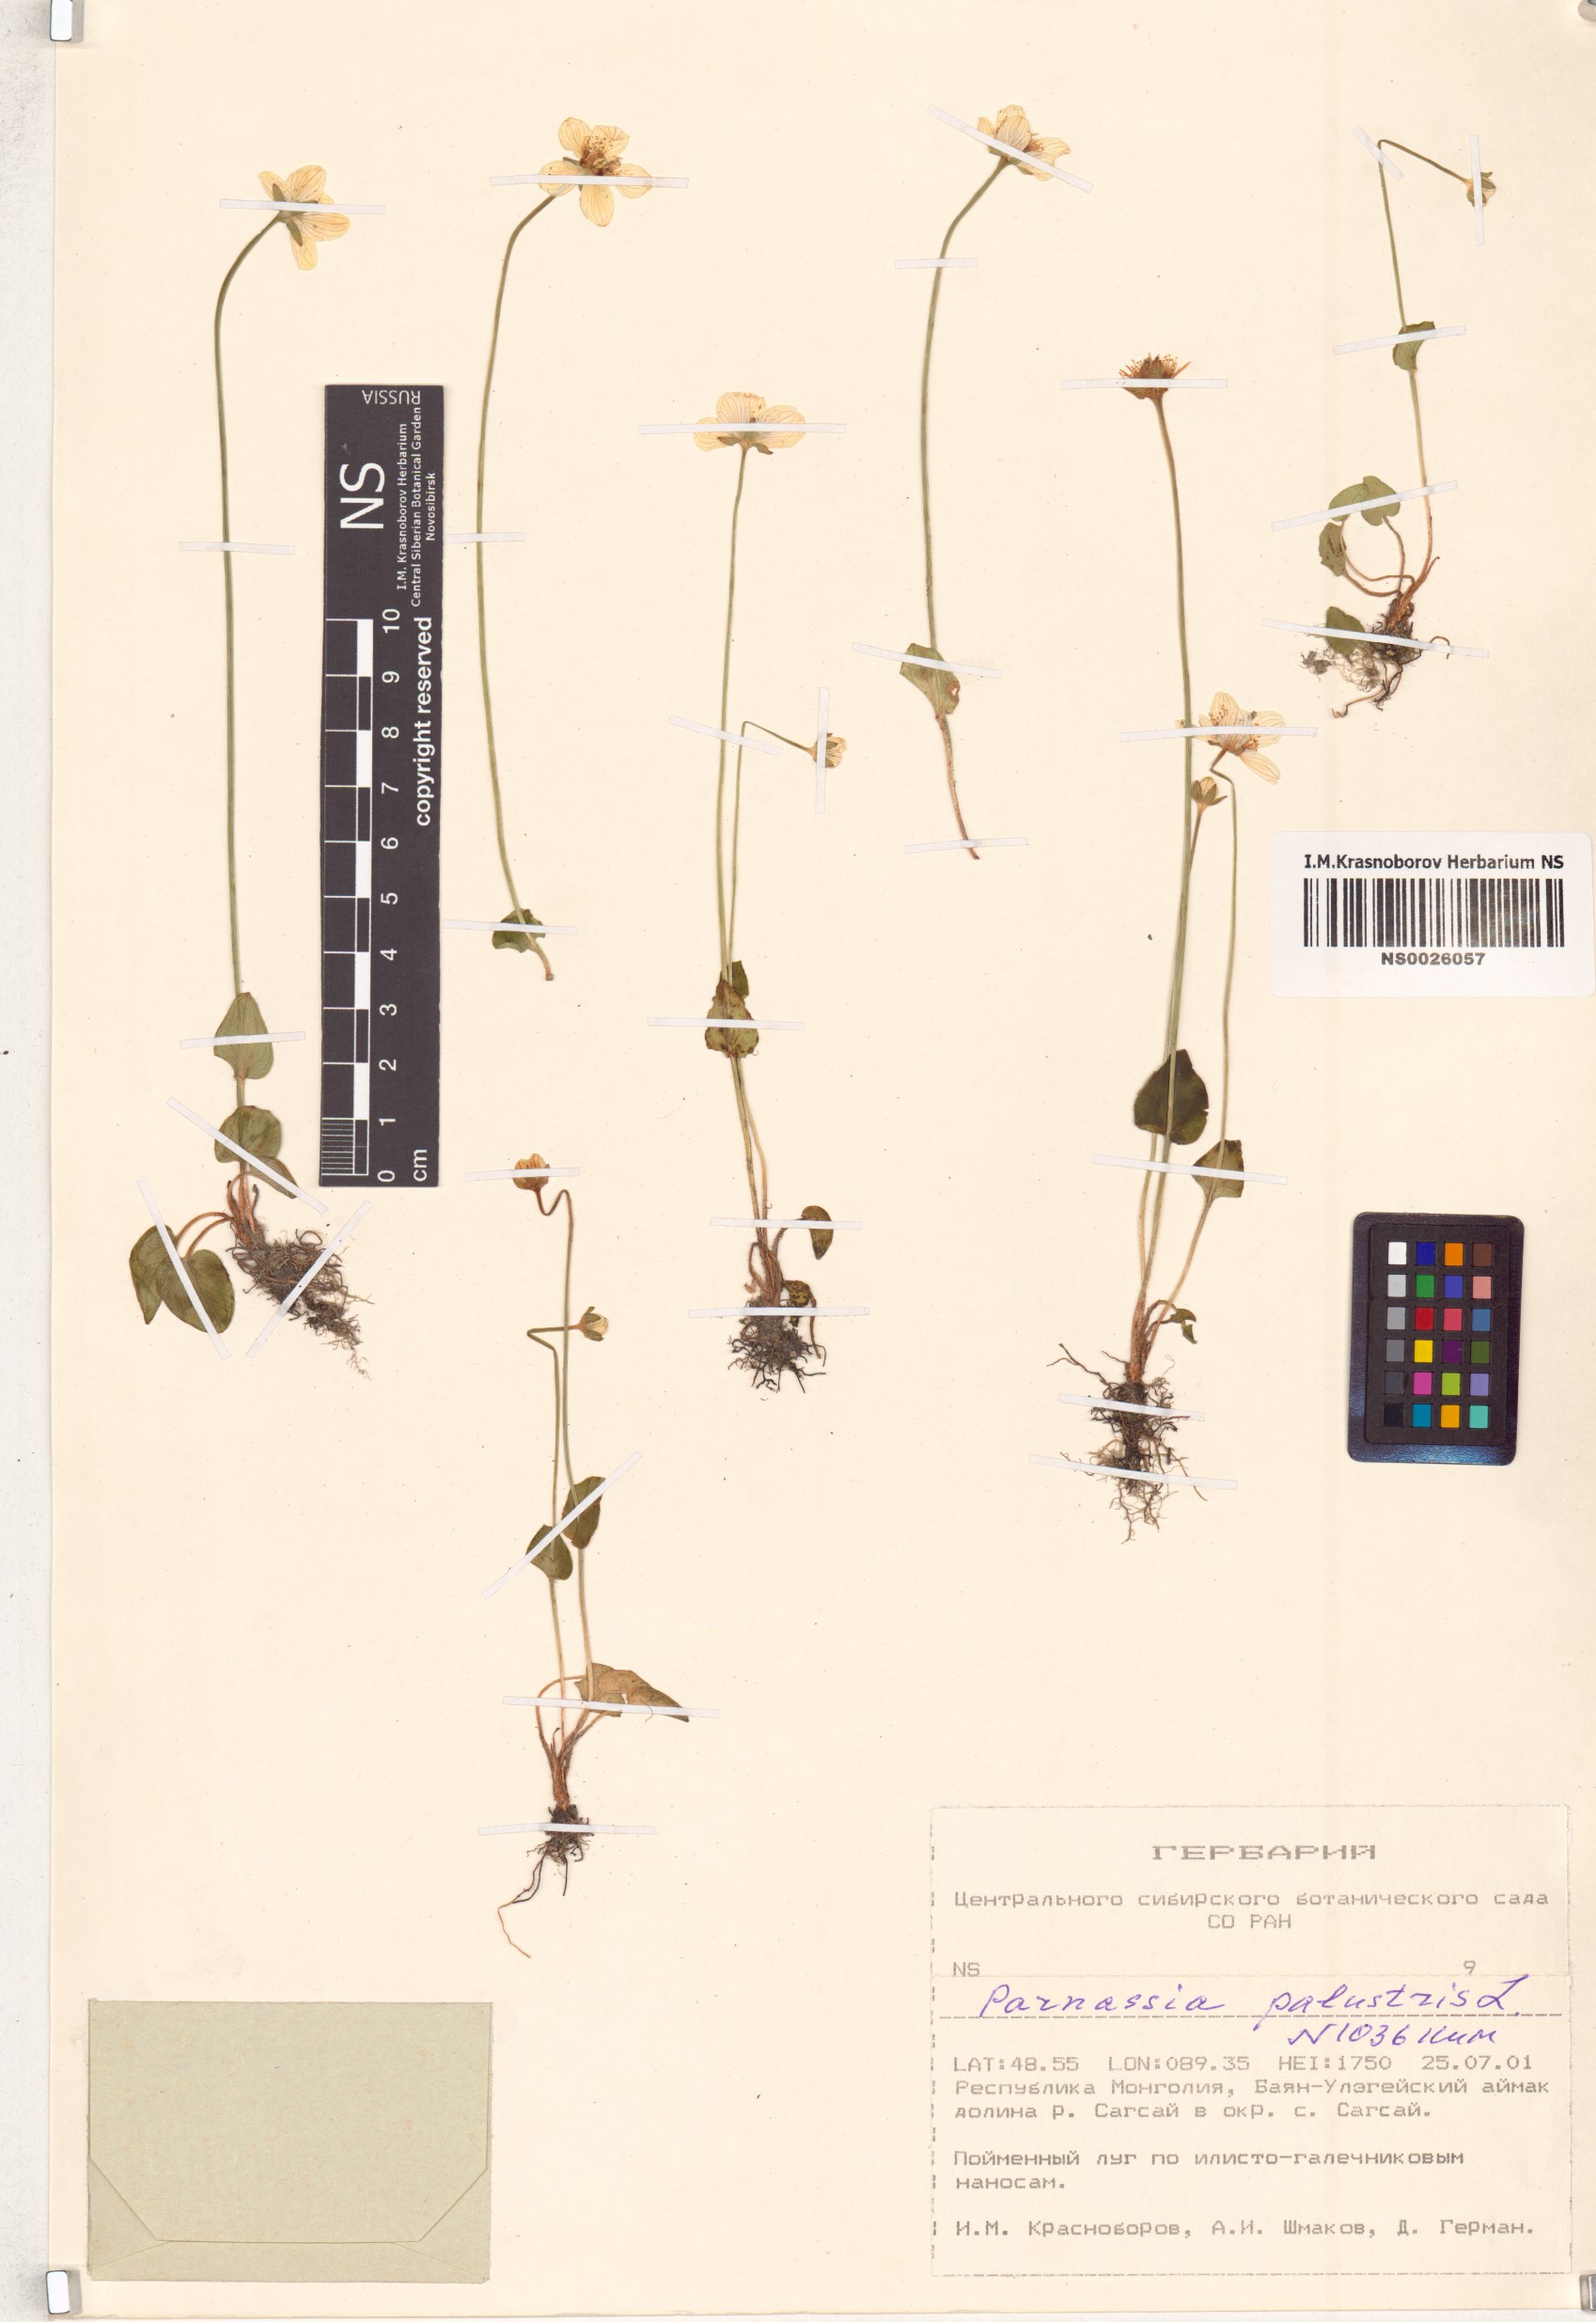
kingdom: Plantae
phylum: Tracheophyta
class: Magnoliopsida
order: Celastrales
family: Parnassiaceae
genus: Parnassia
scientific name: Parnassia palustris
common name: Grass-of-parnassus
